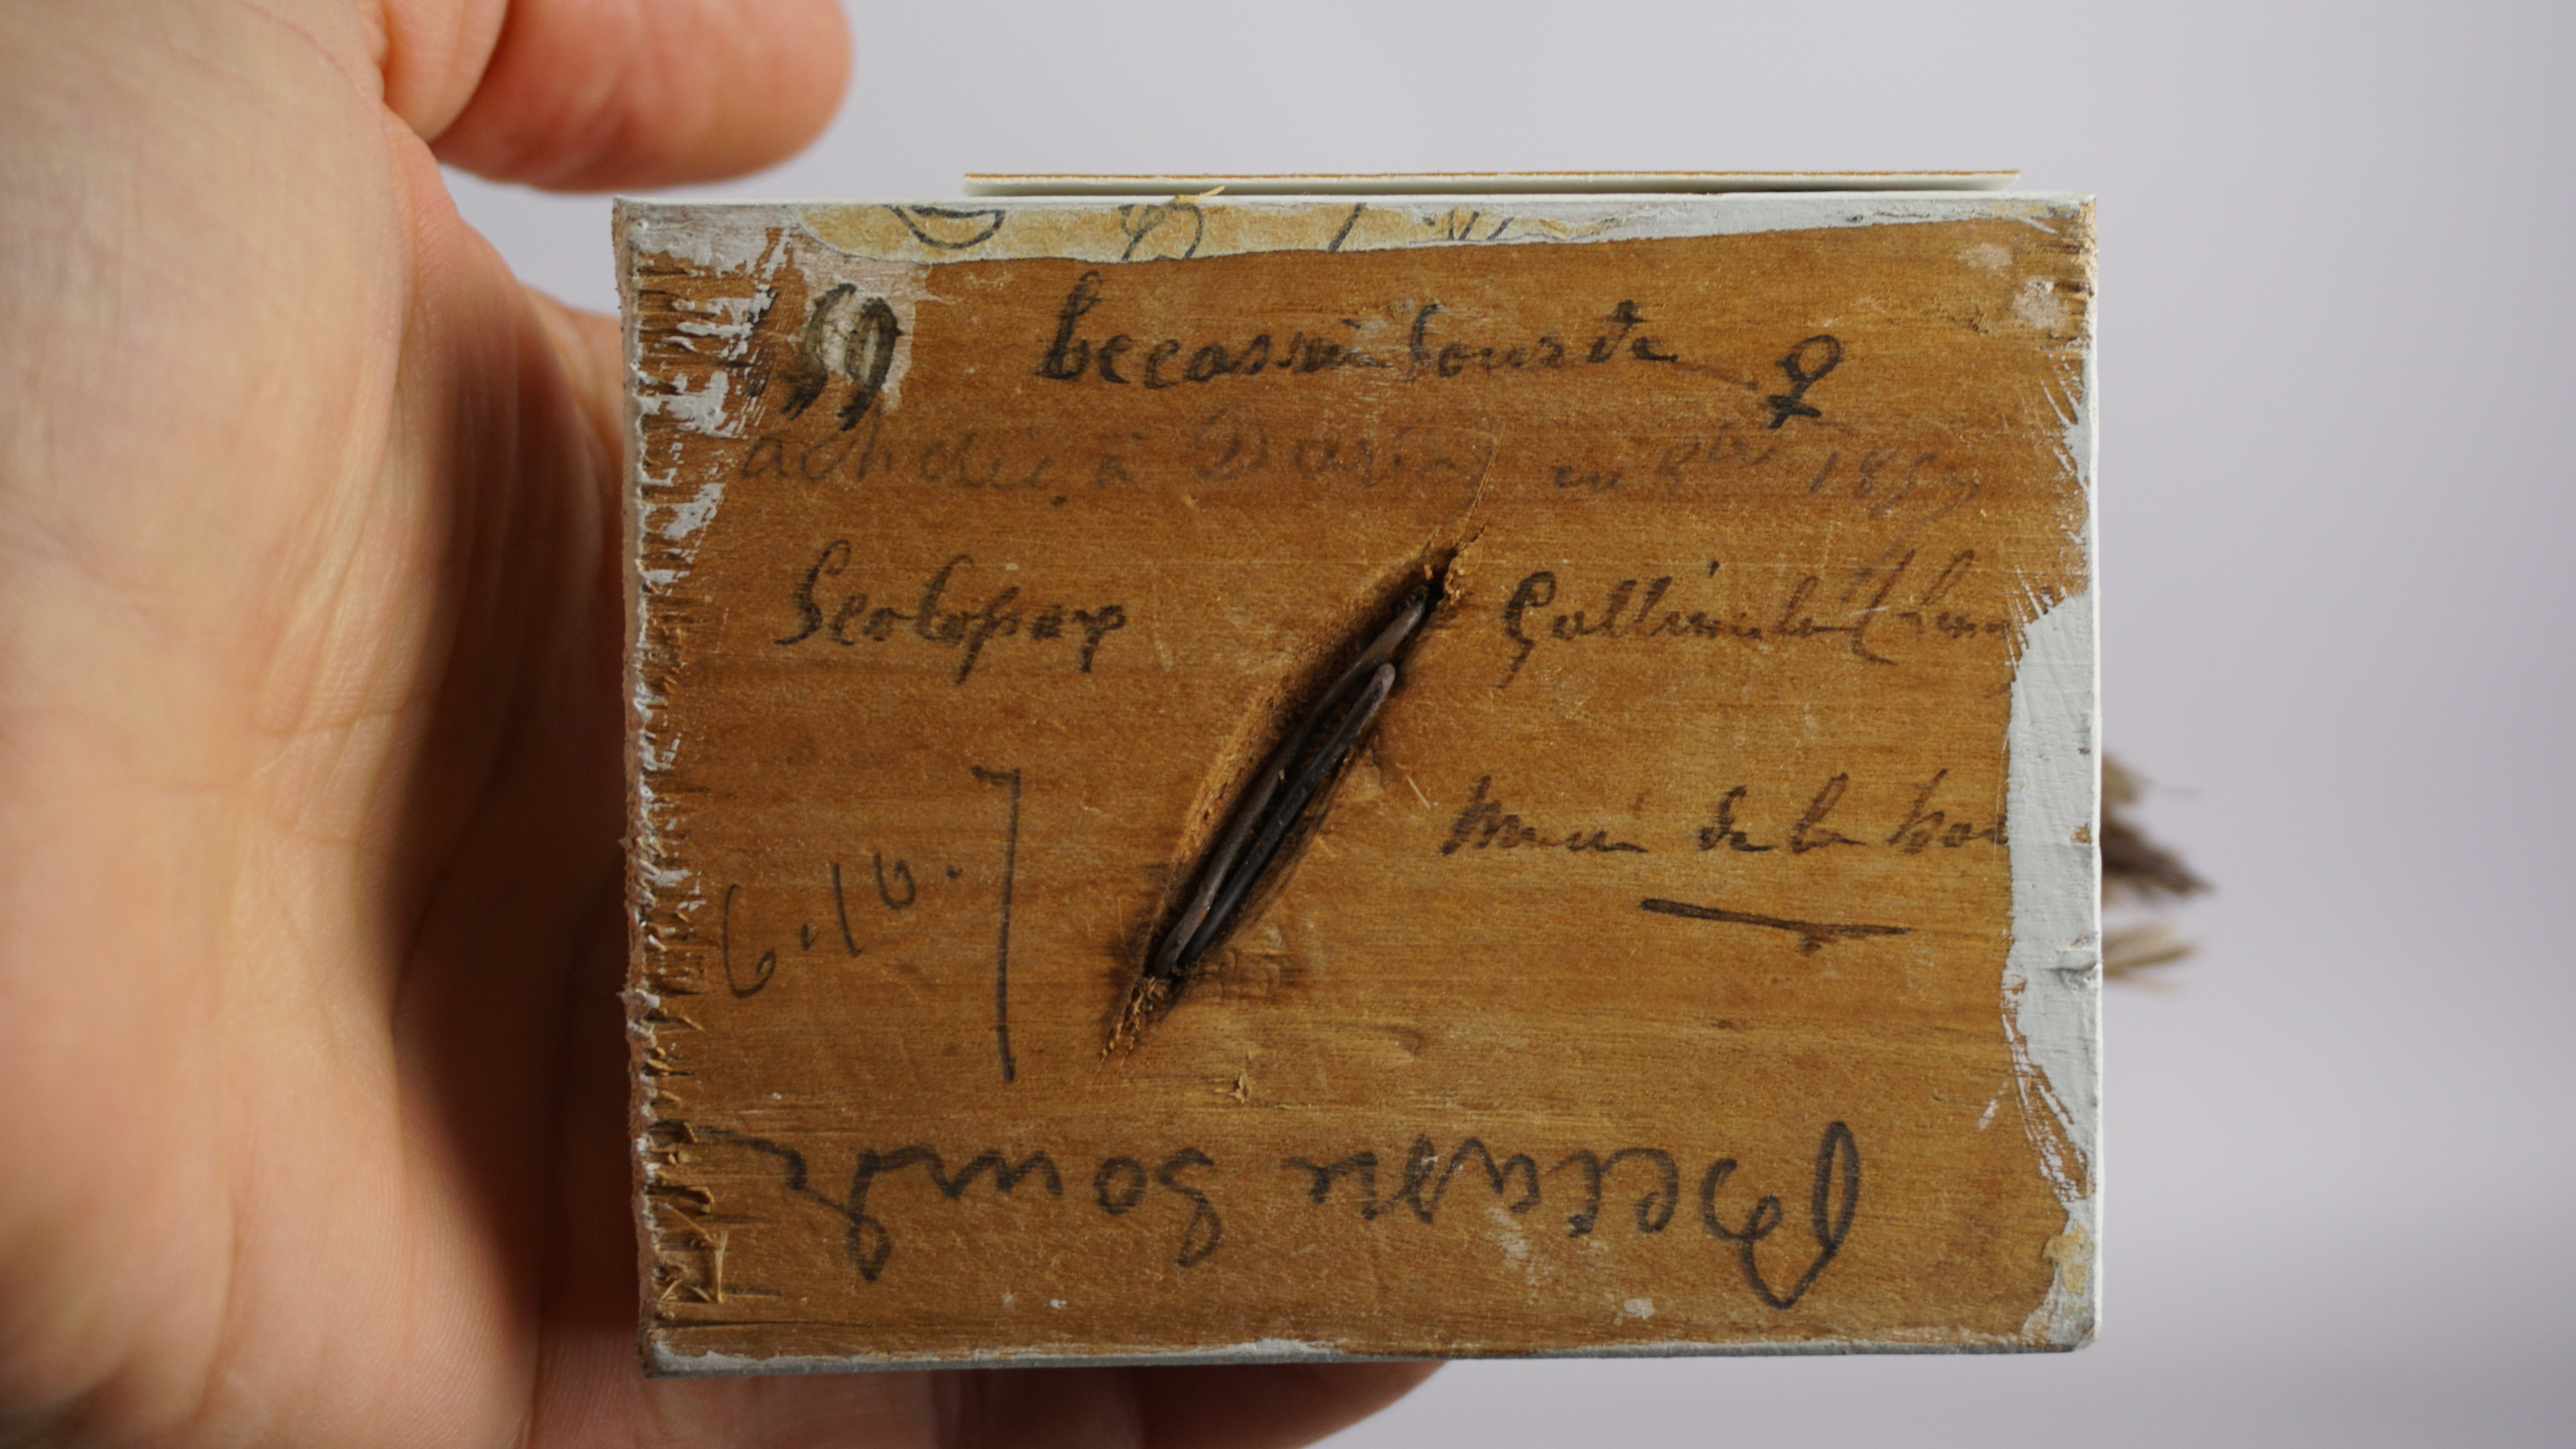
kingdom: Animalia
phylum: Chordata
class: Aves
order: Charadriiformes
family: Scolopacidae
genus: Lymnocryptes
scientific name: Lymnocryptes minimus
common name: Jack snipe
